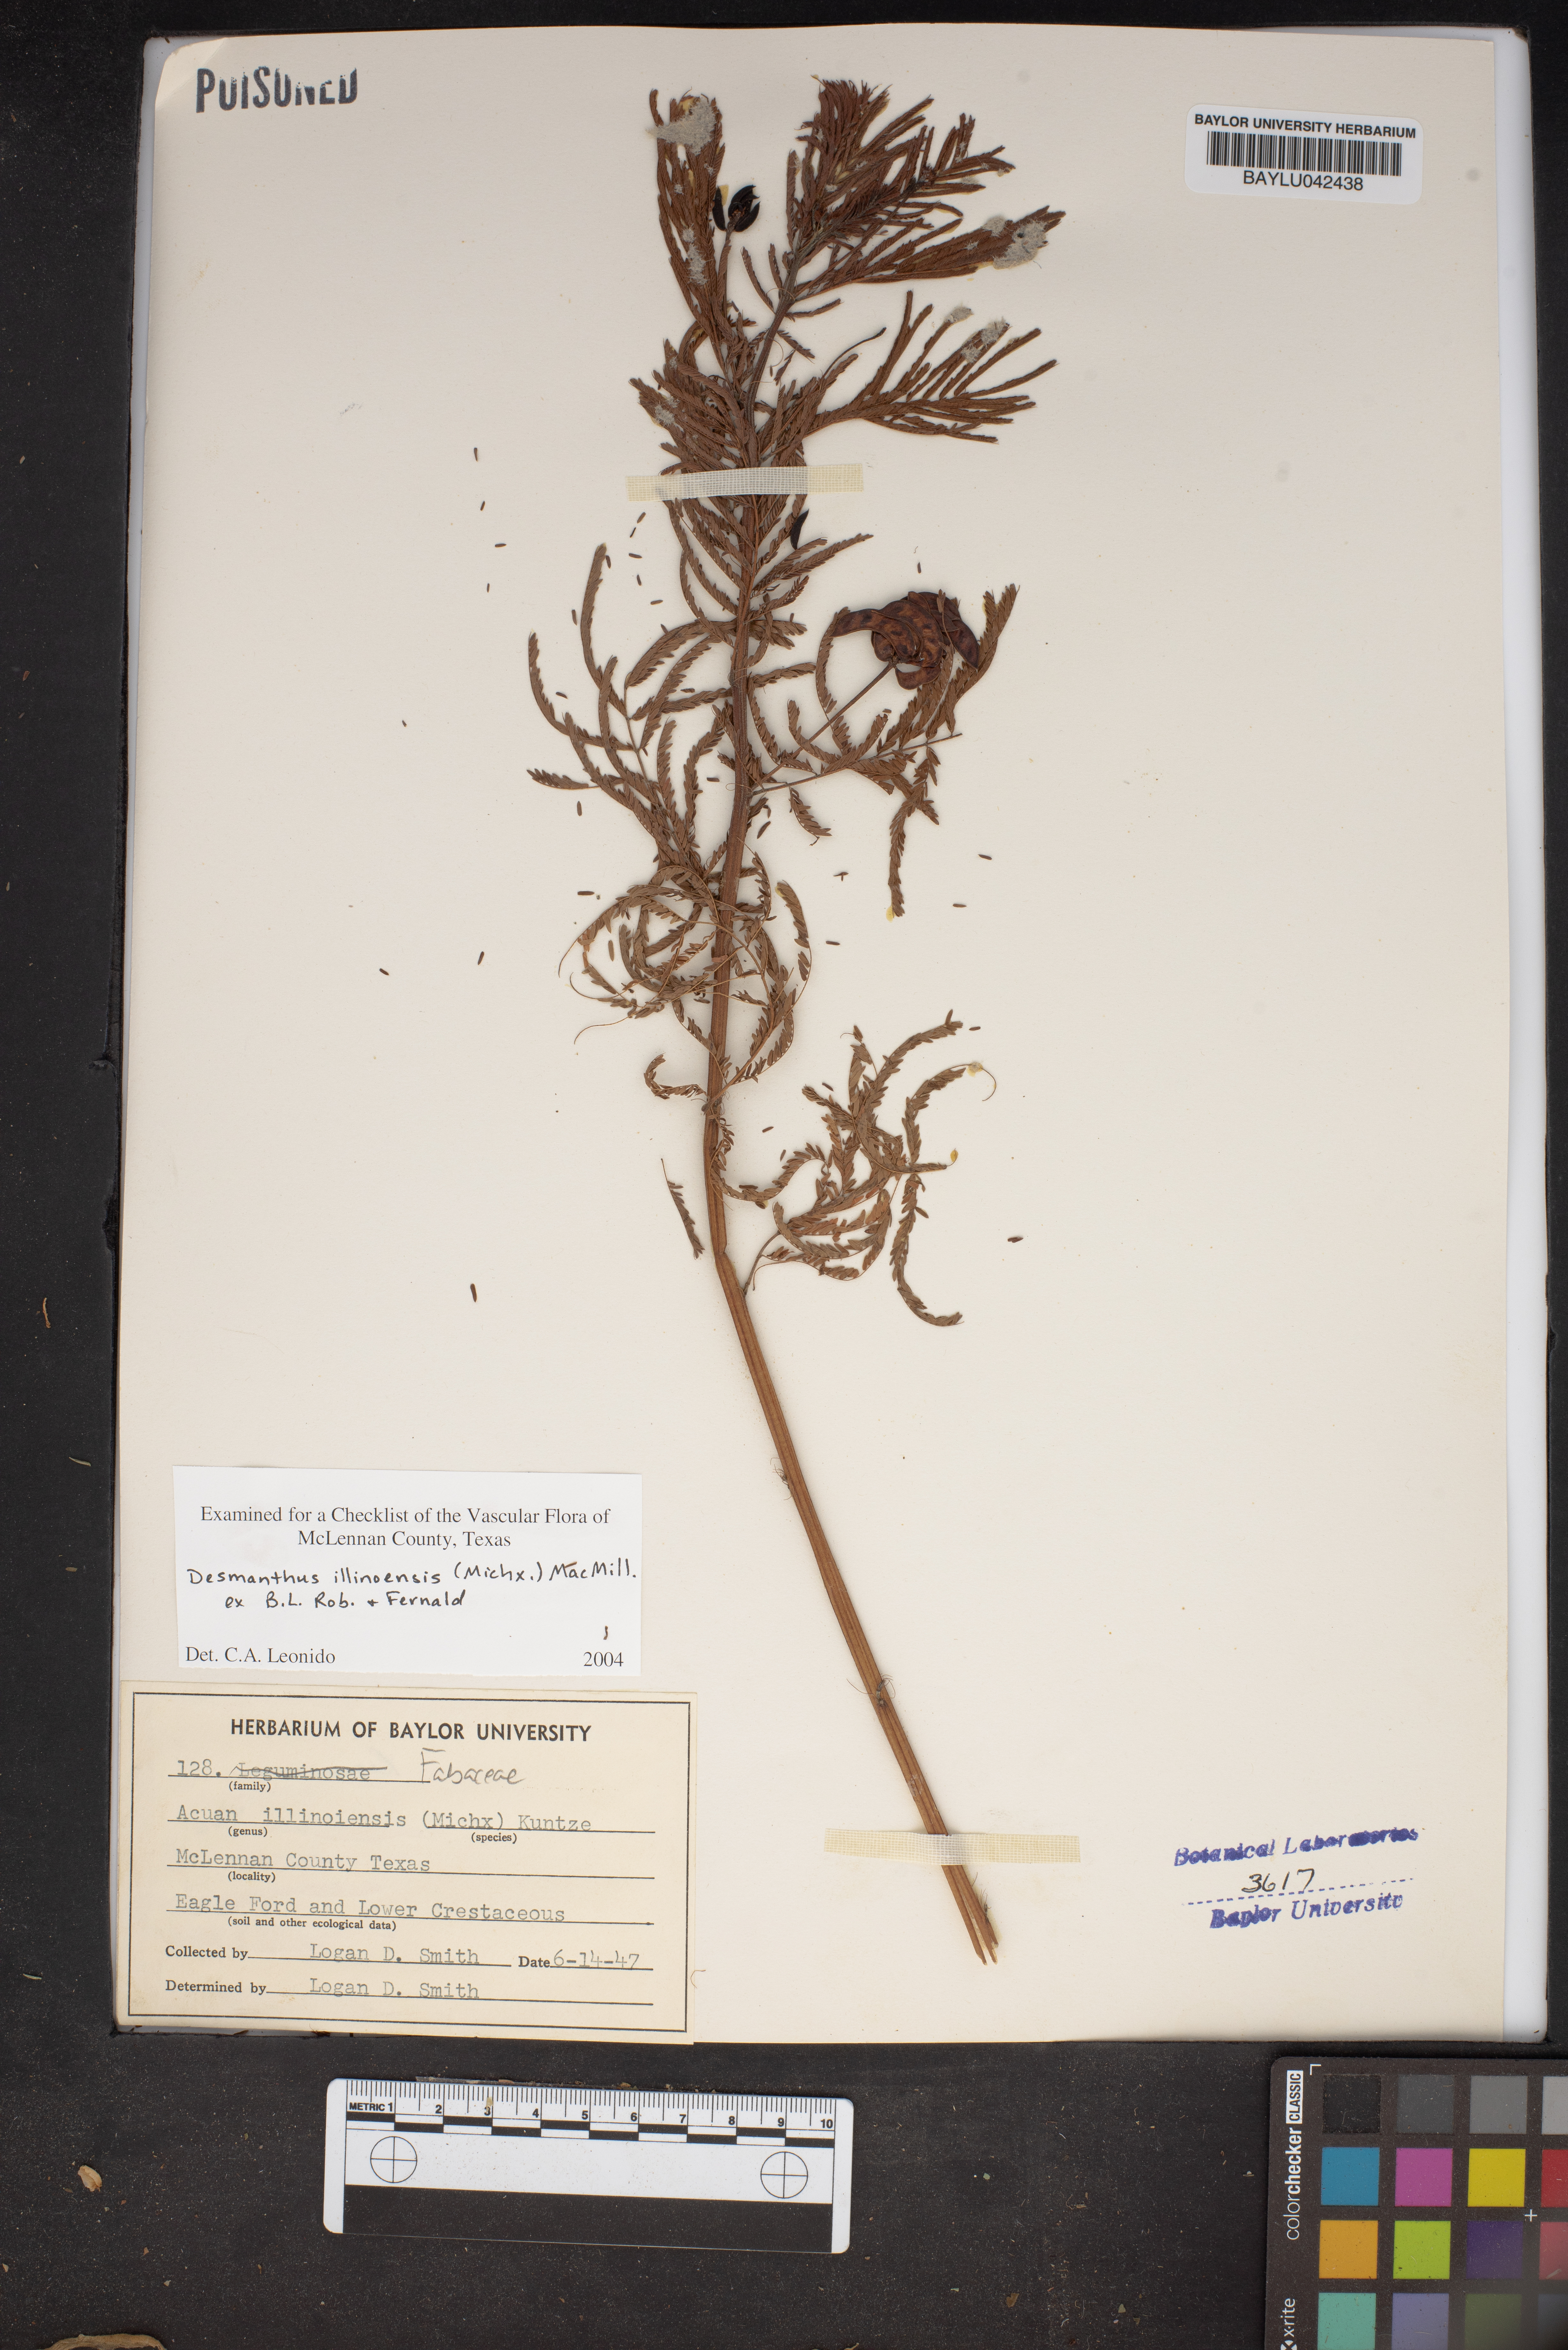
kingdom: Plantae
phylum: Tracheophyta
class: Magnoliopsida
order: Fabales
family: Fabaceae
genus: Desmanthus
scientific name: Desmanthus illinoensis
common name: Illinois bundle-flower
